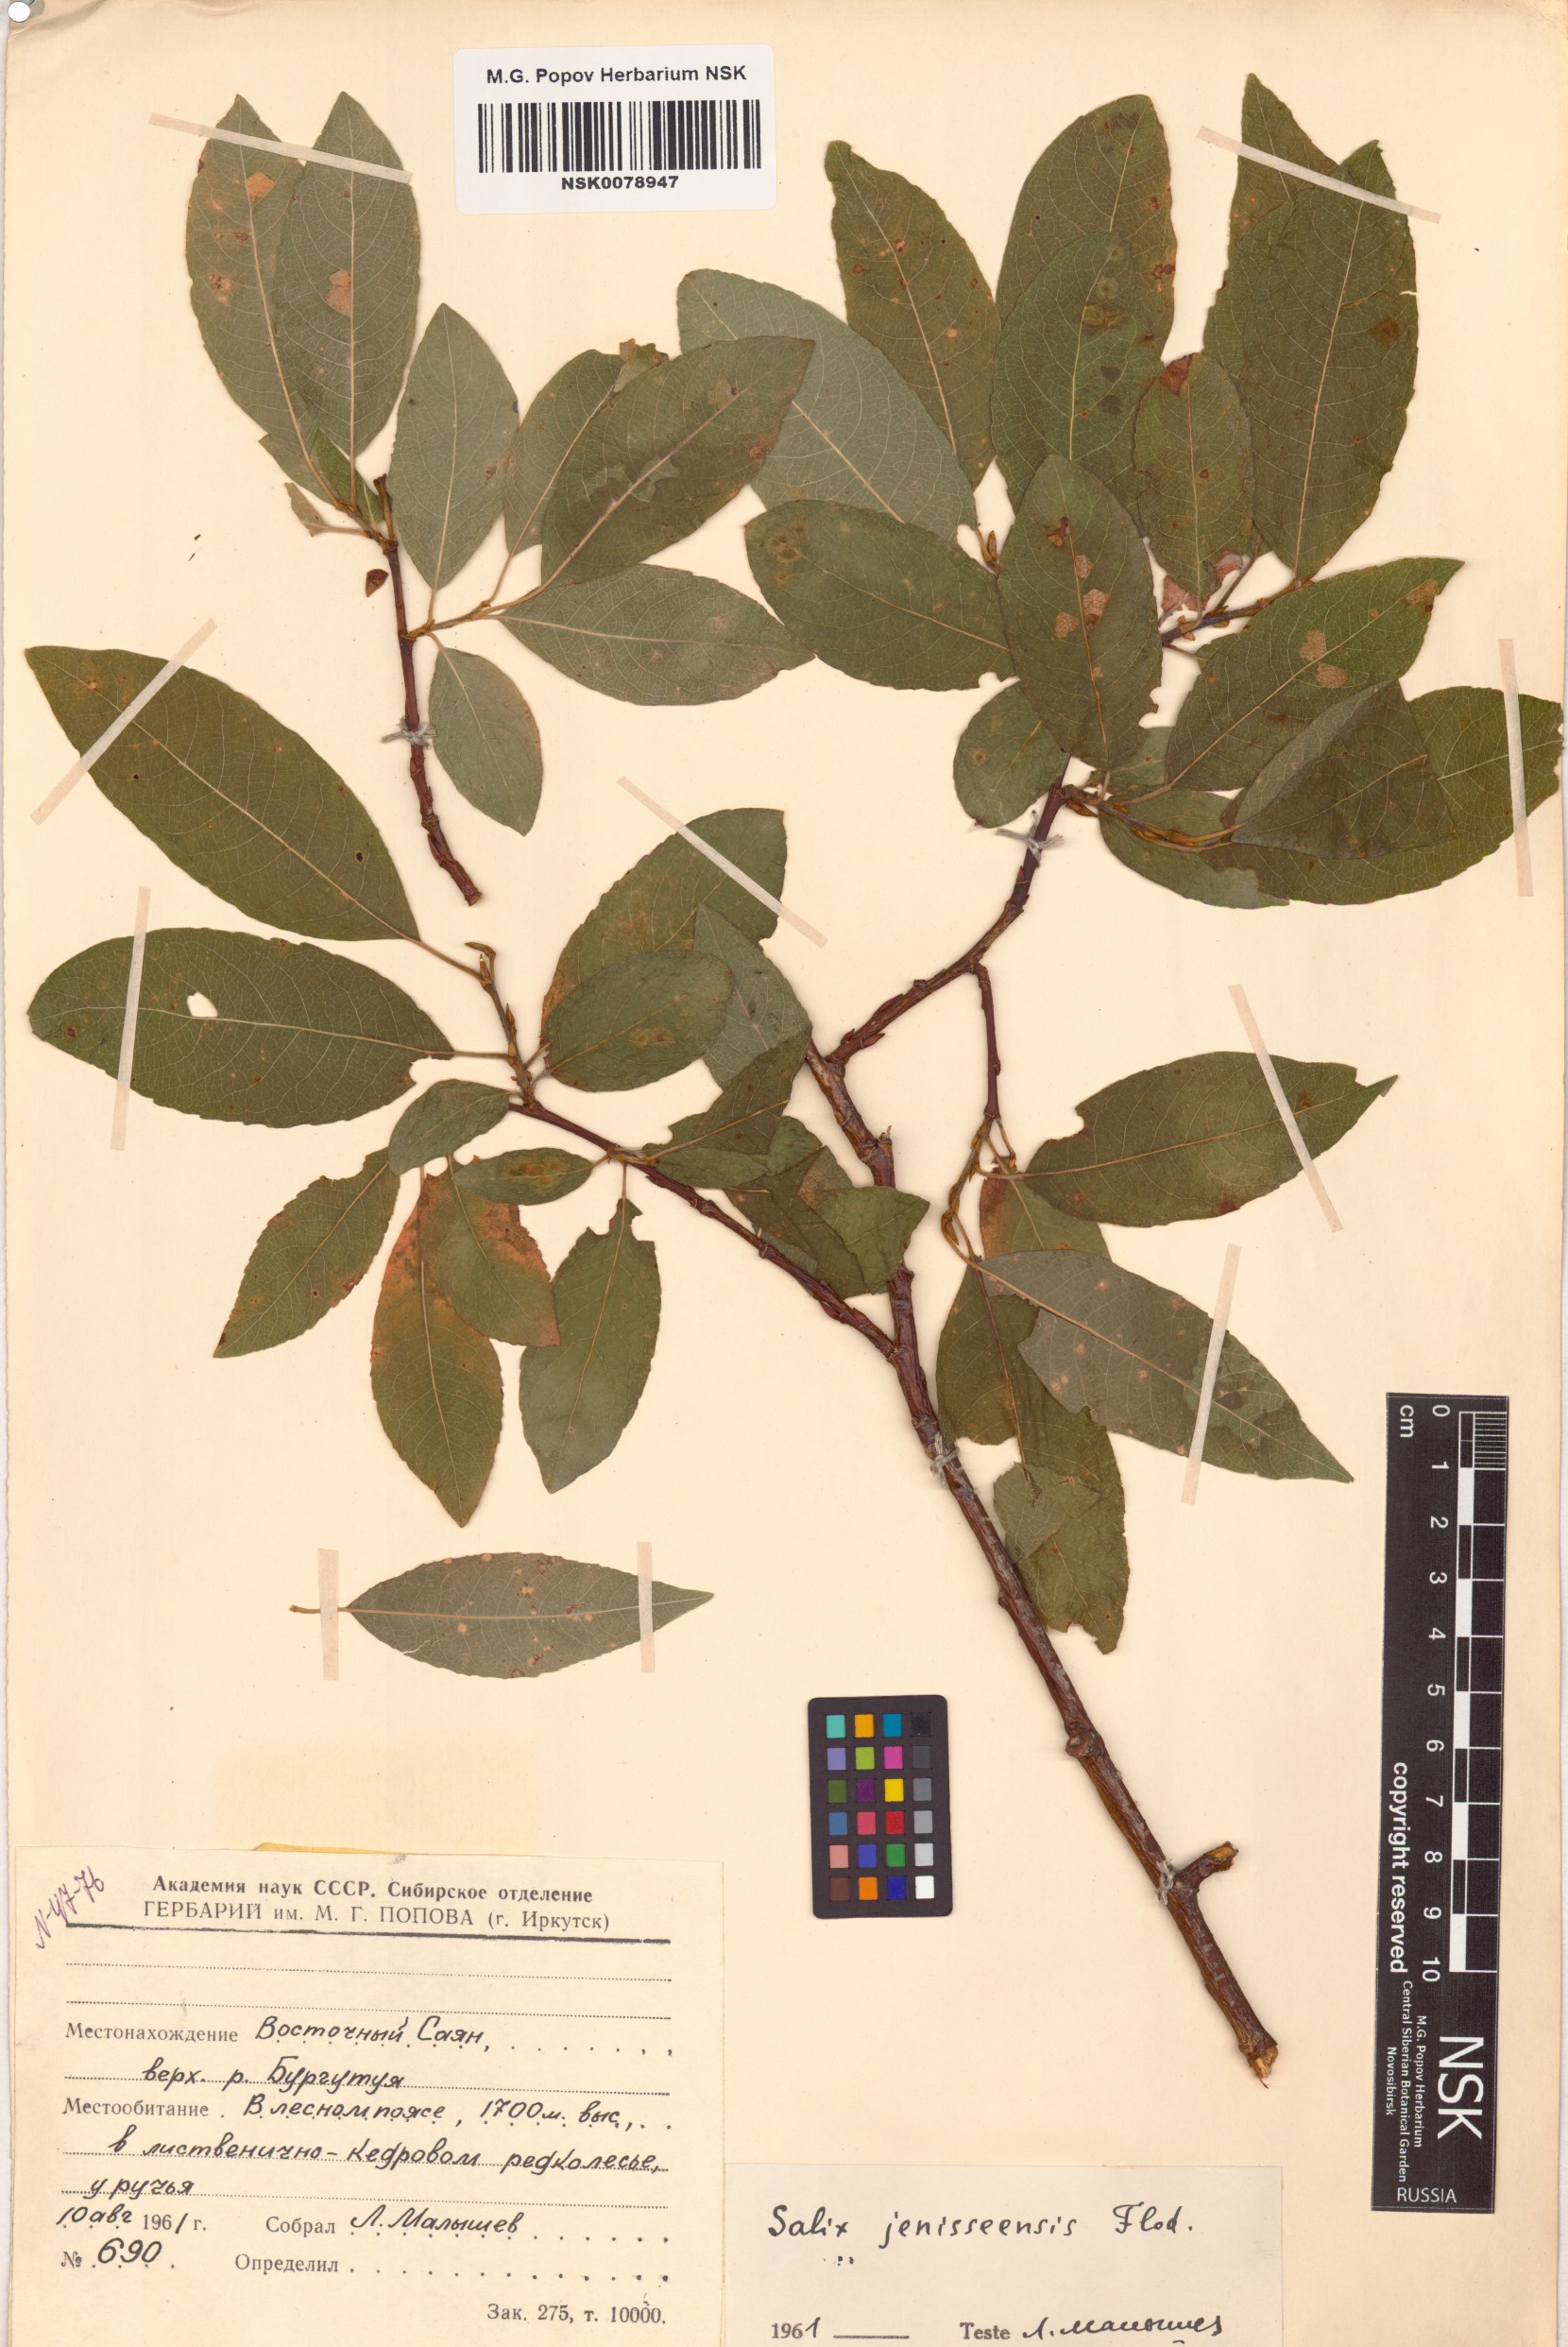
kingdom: Plantae
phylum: Tracheophyta
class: Magnoliopsida
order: Malpighiales
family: Salicaceae
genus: Salix
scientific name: Salix jenisseensis
